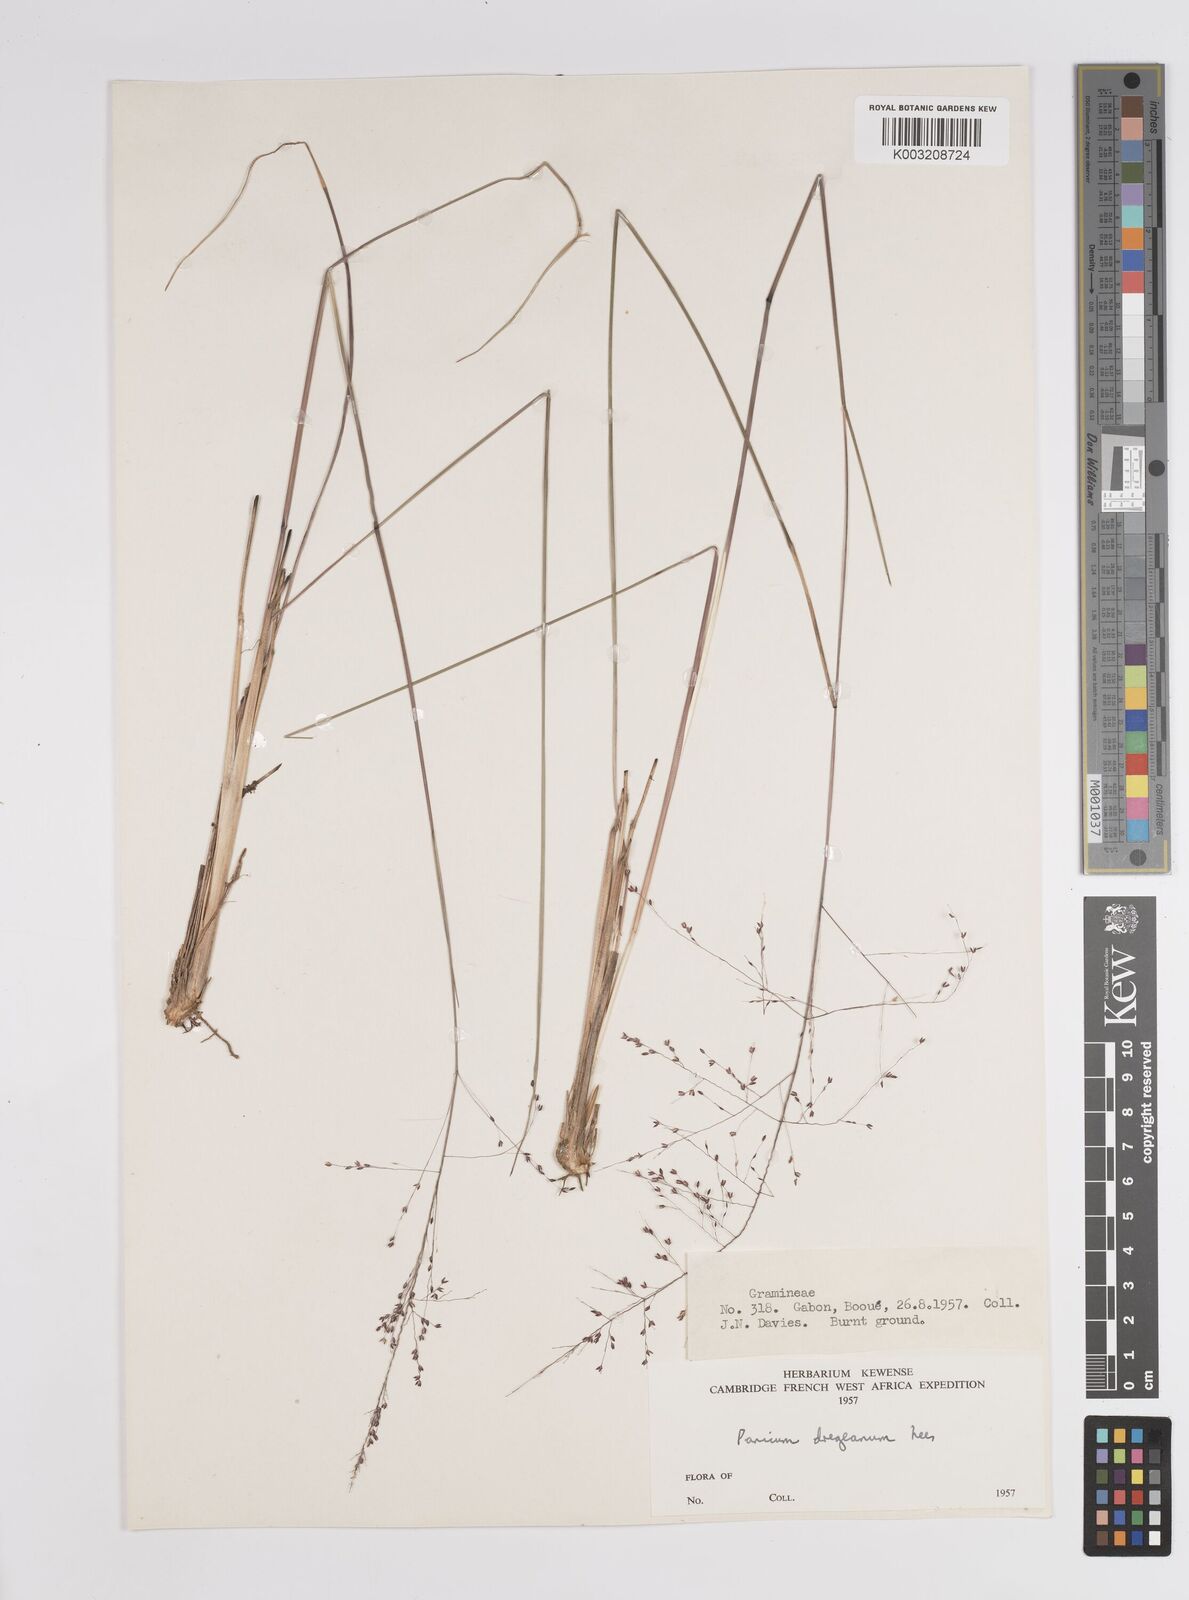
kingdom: Plantae
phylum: Tracheophyta
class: Liliopsida
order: Poales
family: Poaceae
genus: Panicum
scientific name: Panicum dregeanum
